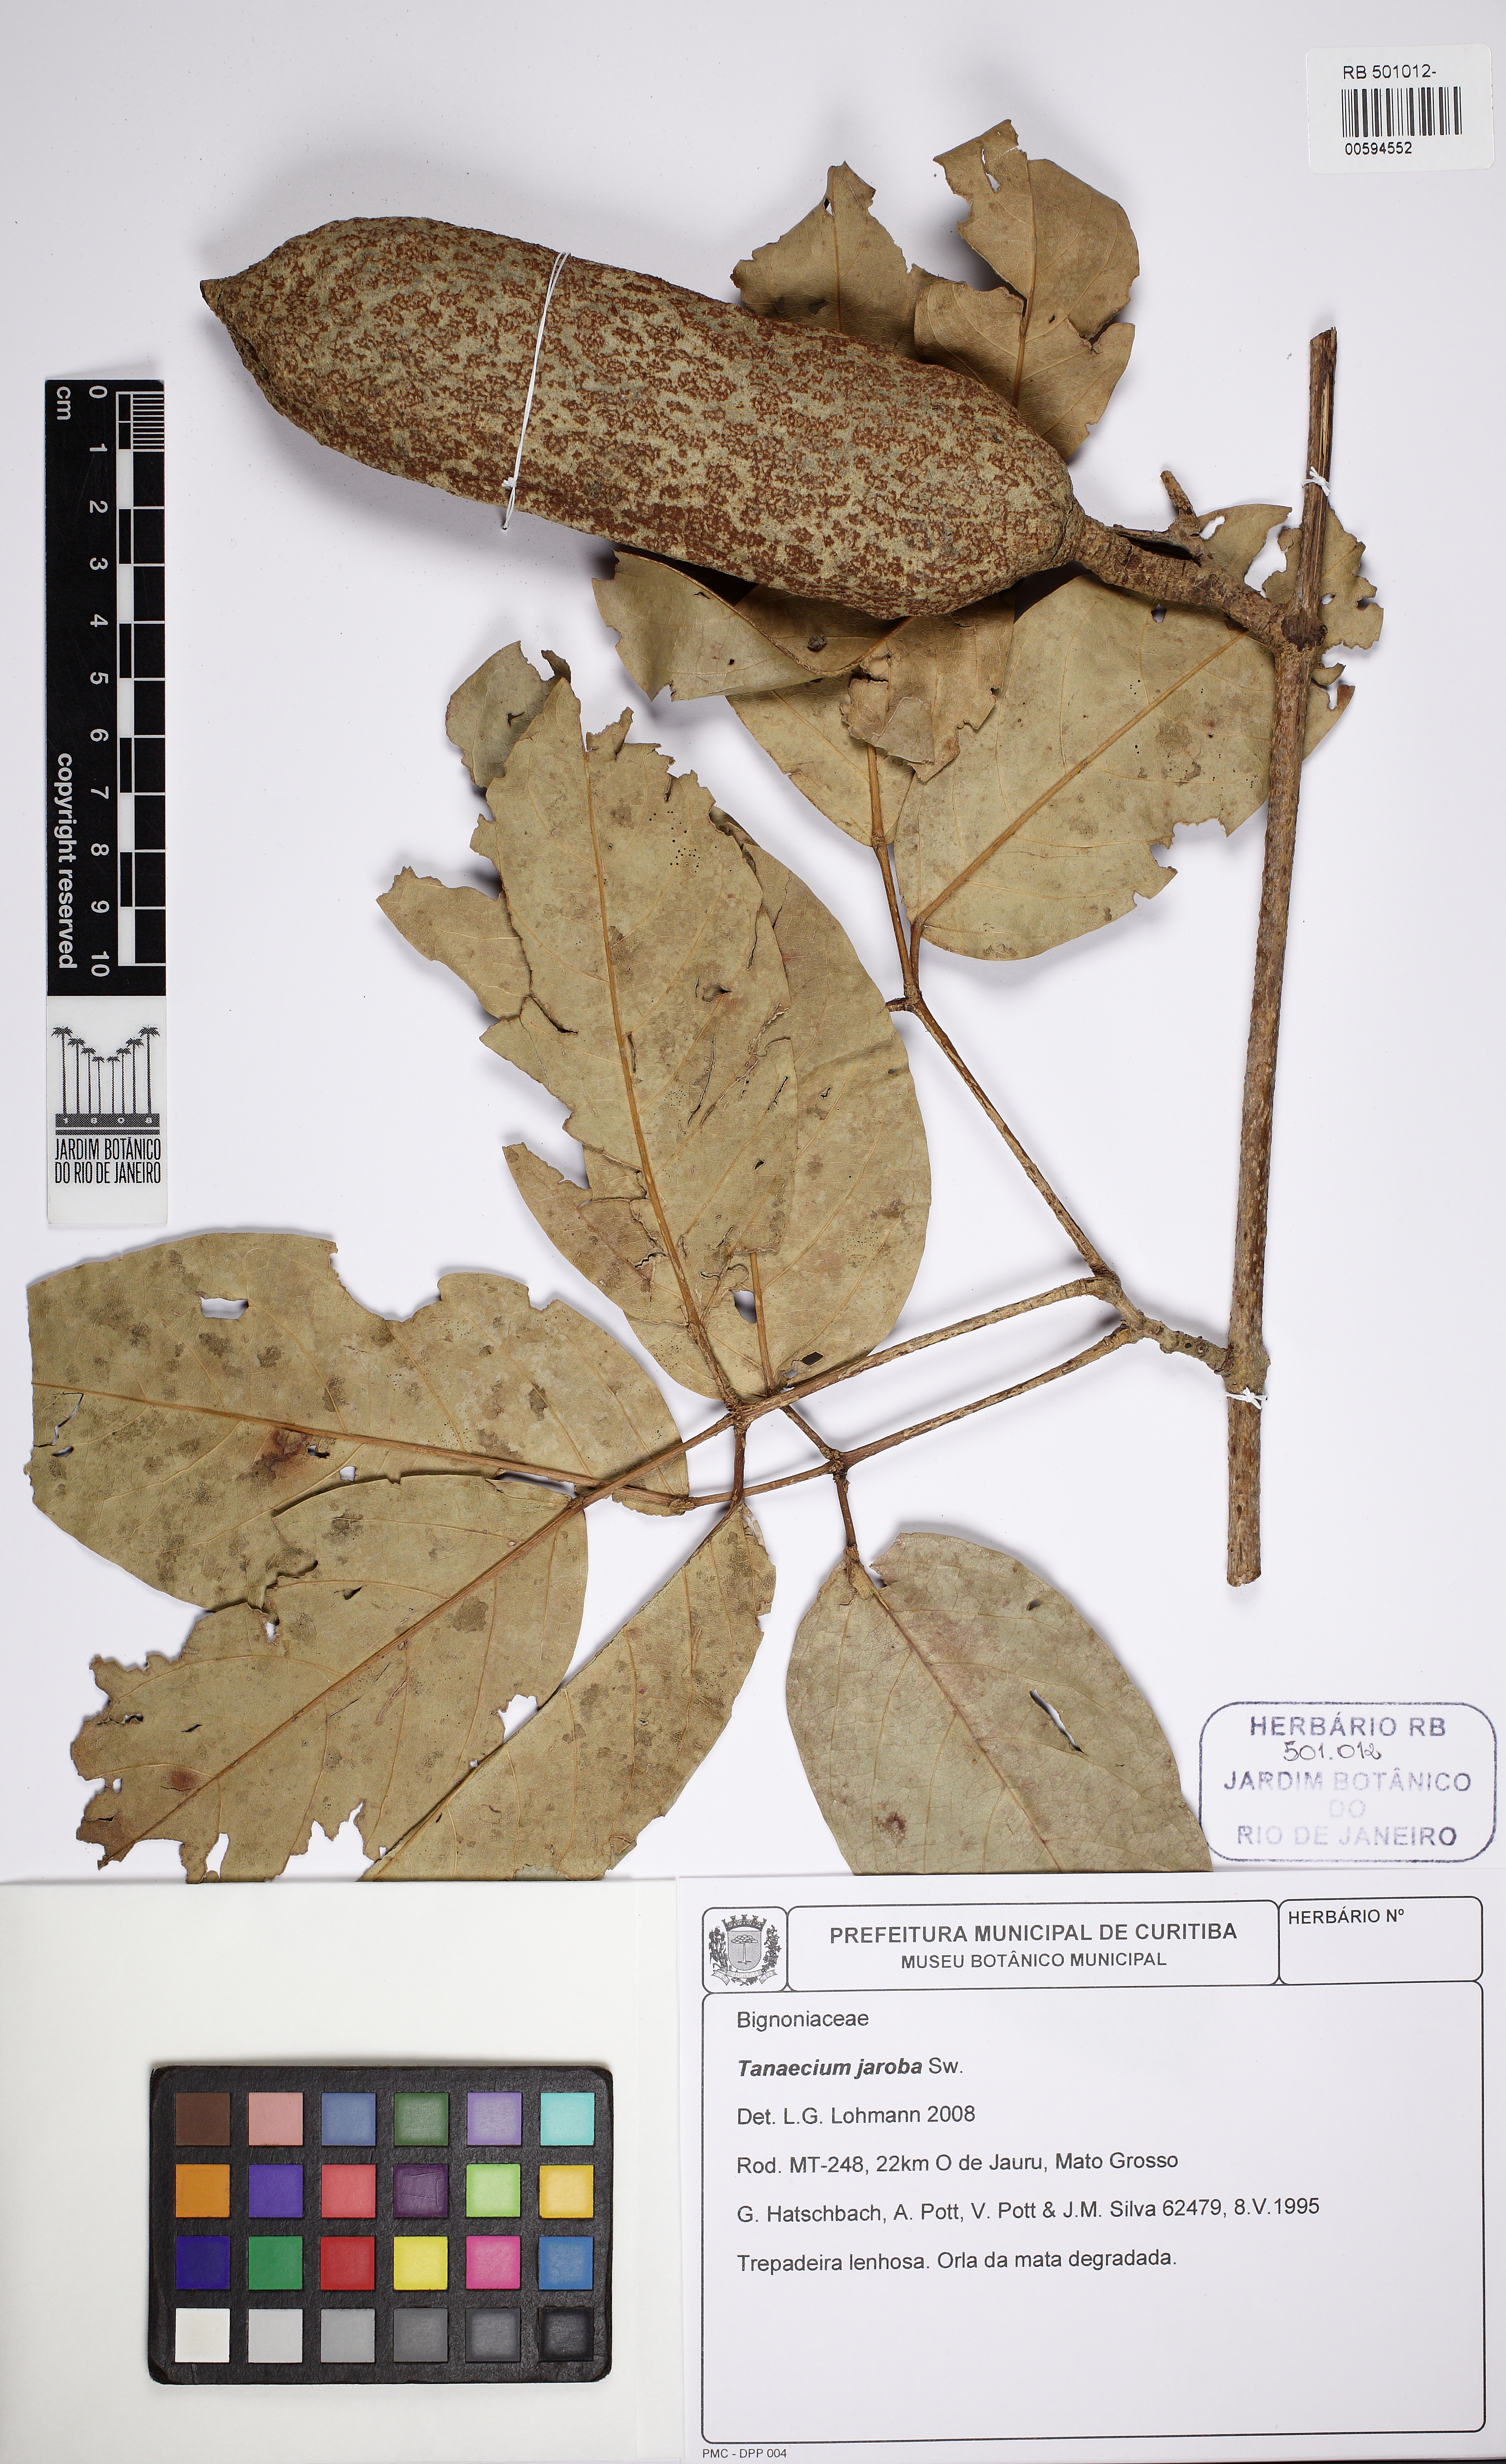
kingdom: Plantae
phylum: Tracheophyta
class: Magnoliopsida
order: Lamiales
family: Bignoniaceae
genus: Xylophragma
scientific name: Xylophragma
